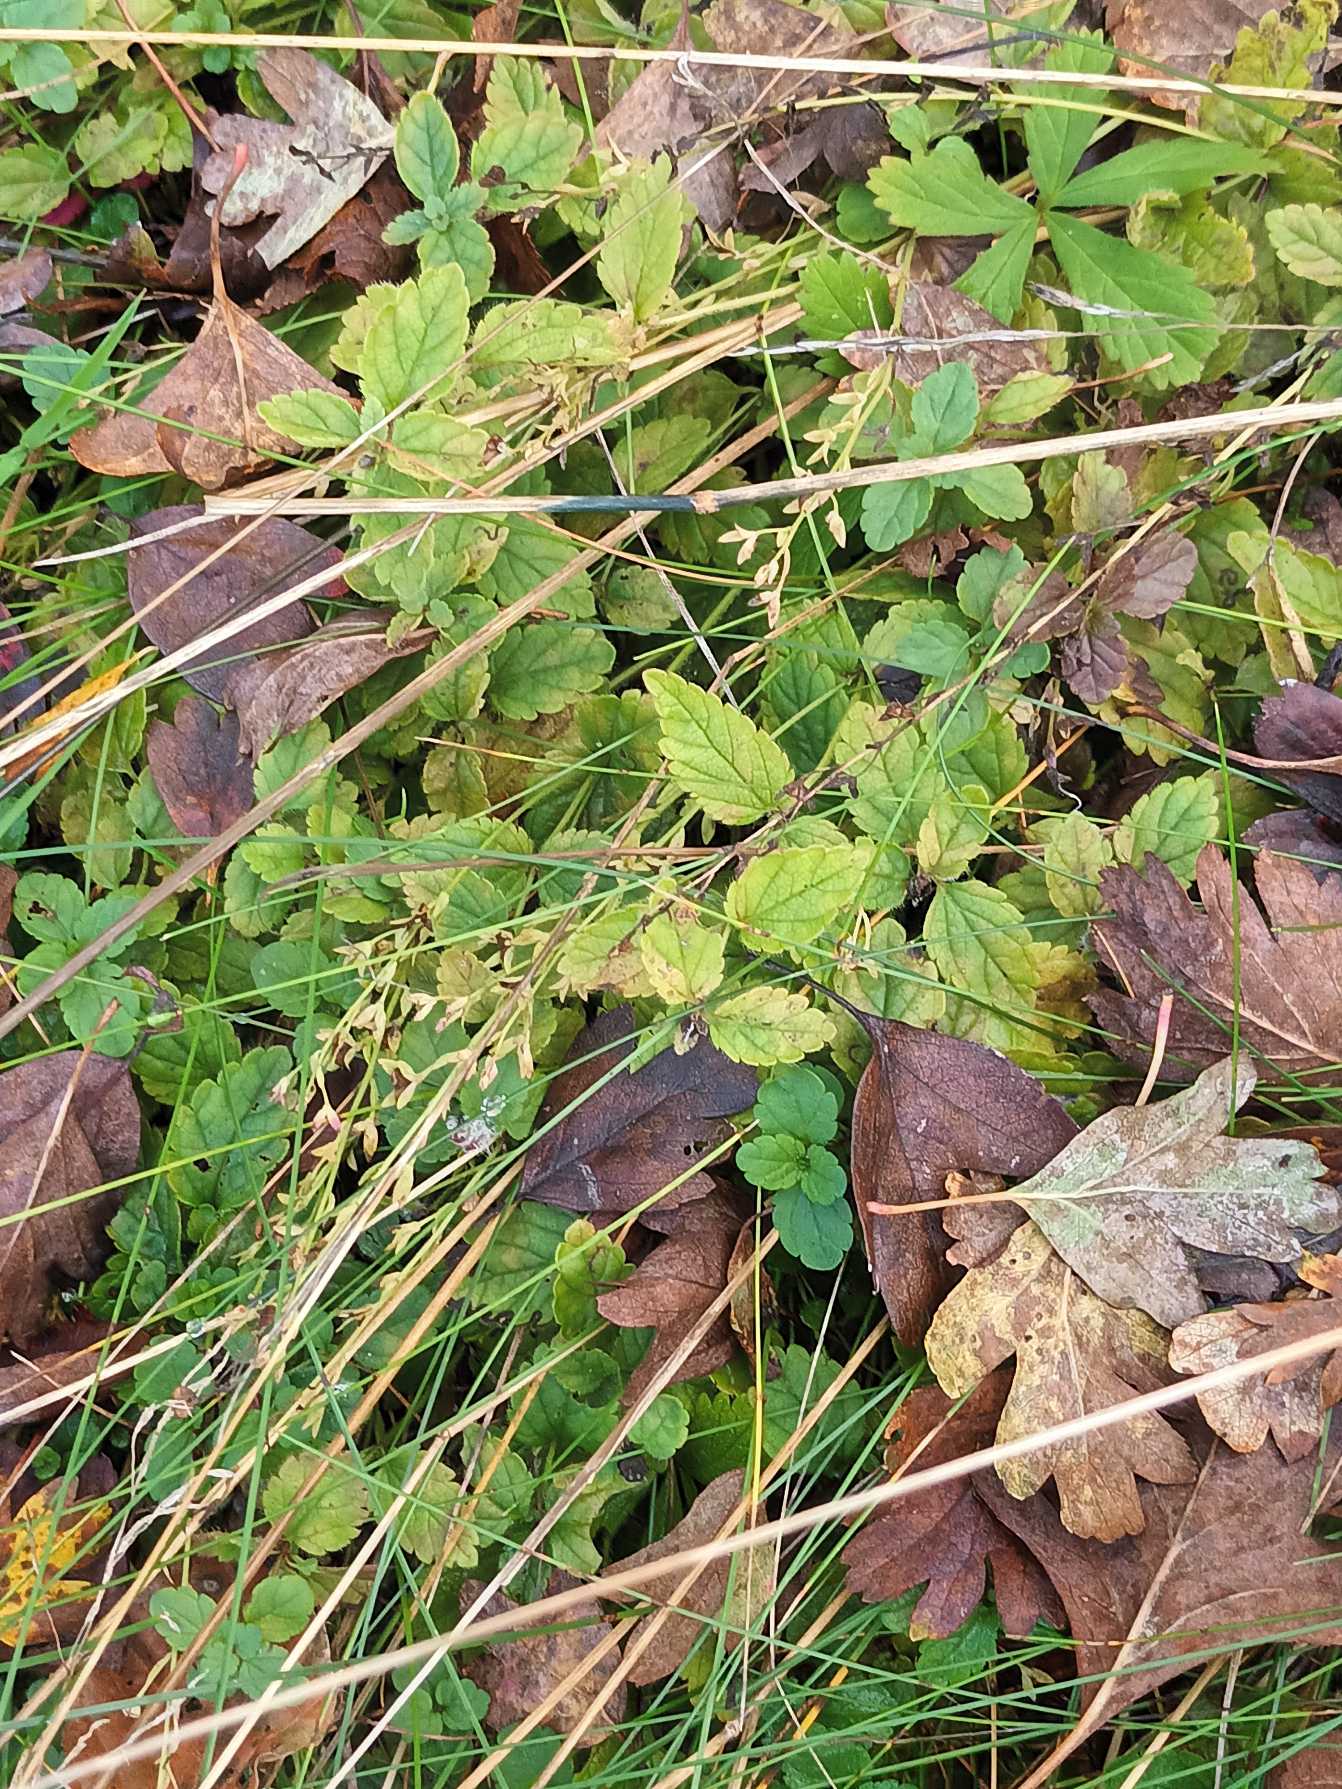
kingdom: Plantae
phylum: Tracheophyta
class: Magnoliopsida
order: Lamiales
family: Plantaginaceae
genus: Veronica
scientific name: Veronica chamaedrys
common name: Tveskægget ærenpris
